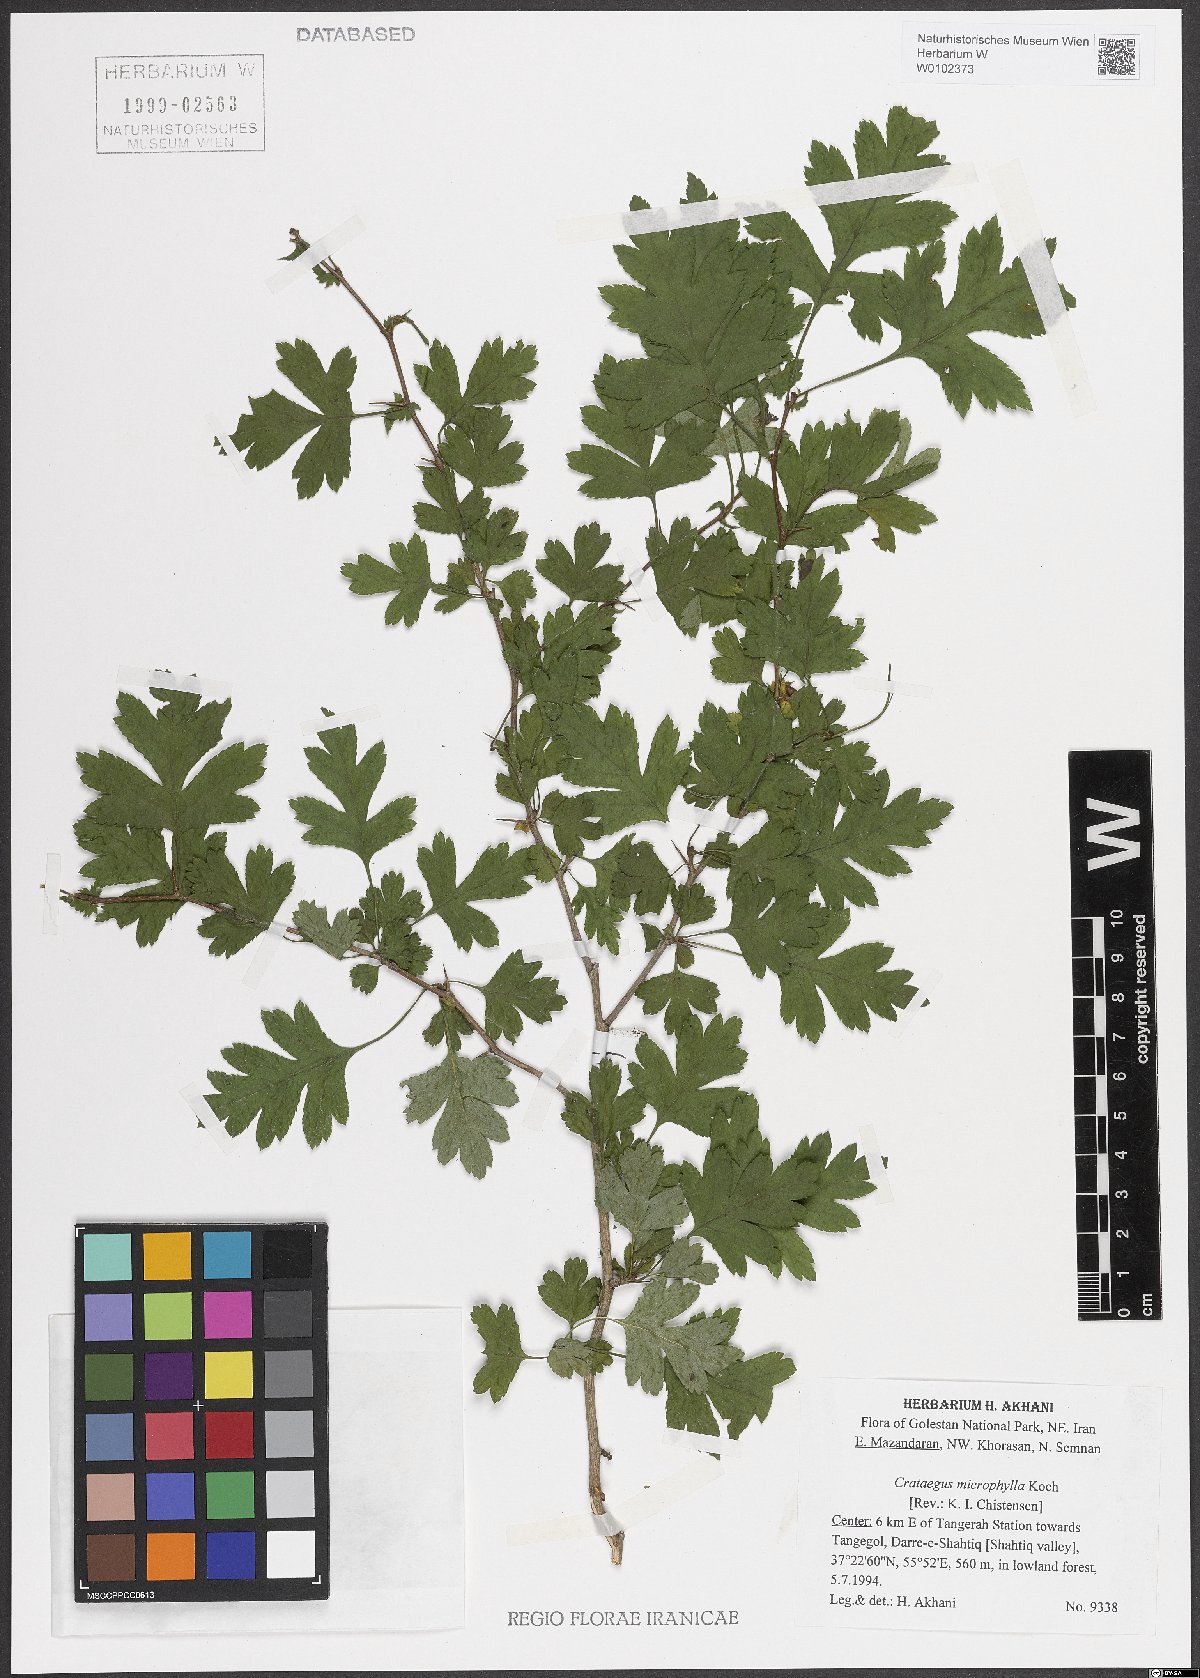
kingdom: Plantae
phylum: Tracheophyta
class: Magnoliopsida
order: Rosales
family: Rosaceae
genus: Crataegus
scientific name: Crataegus microphylla
